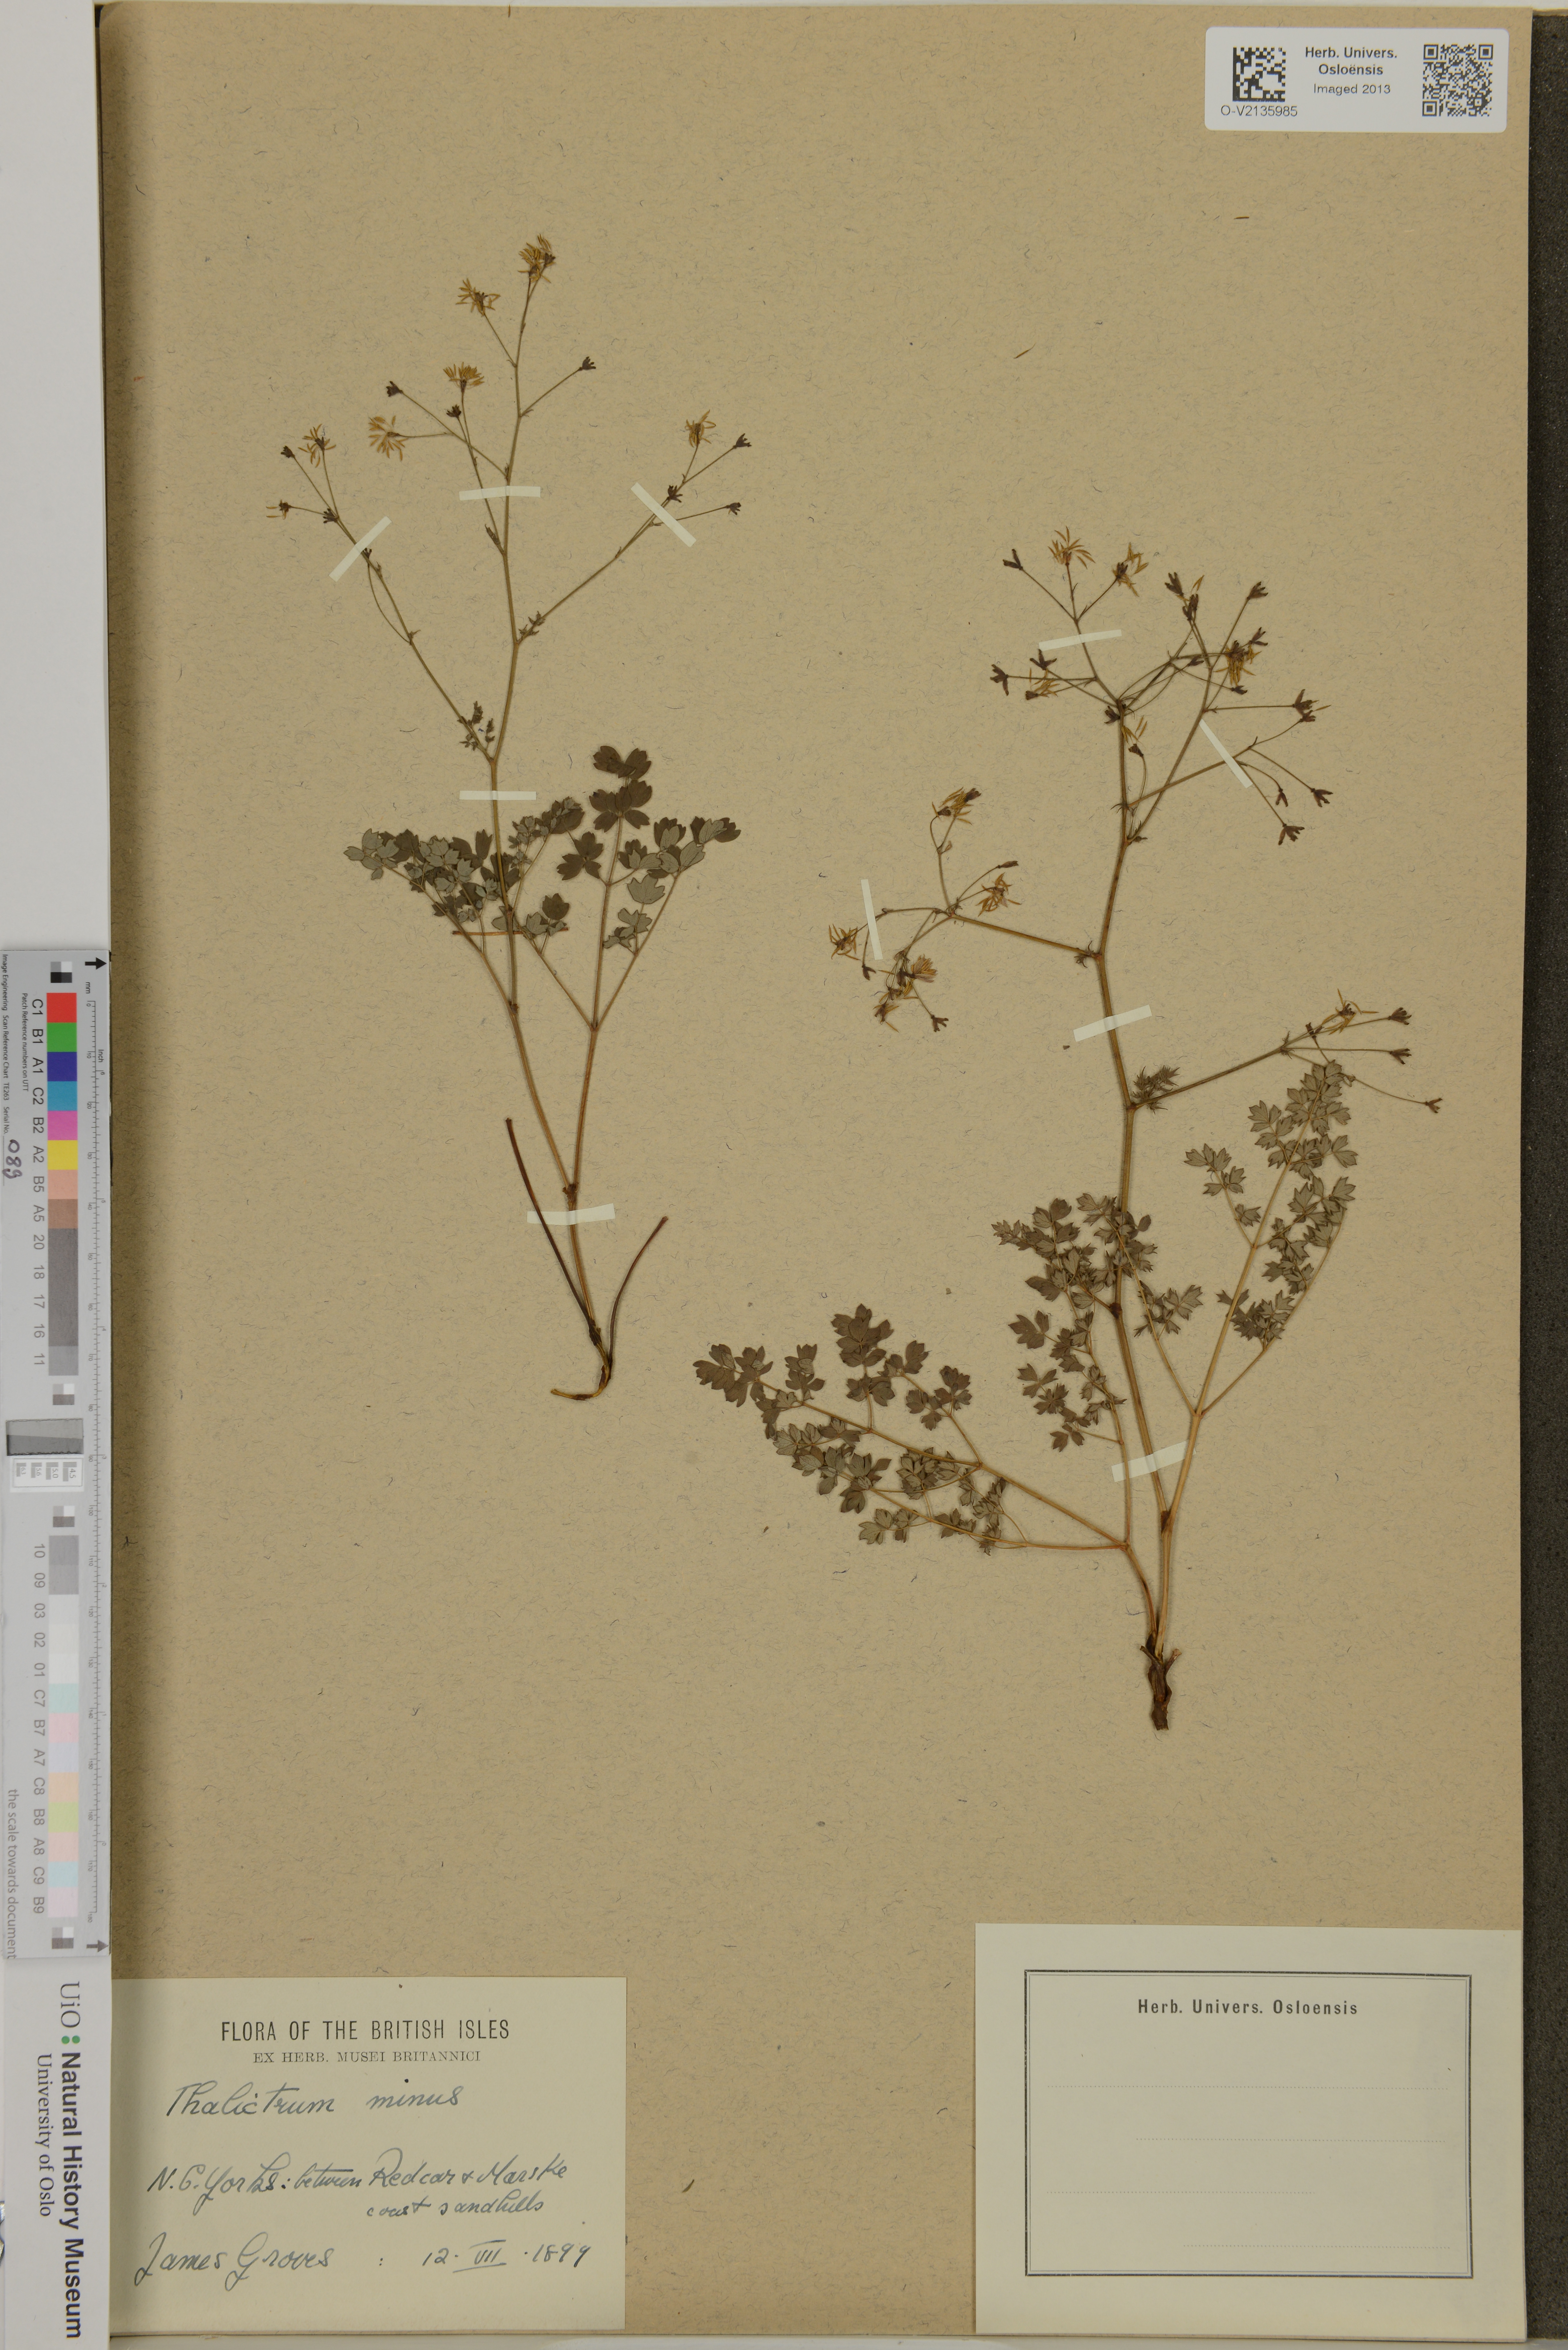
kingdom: Plantae
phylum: Tracheophyta
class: Magnoliopsida
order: Ranunculales
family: Ranunculaceae
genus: Thalictrum
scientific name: Thalictrum minus
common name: Lesser meadow-rue
